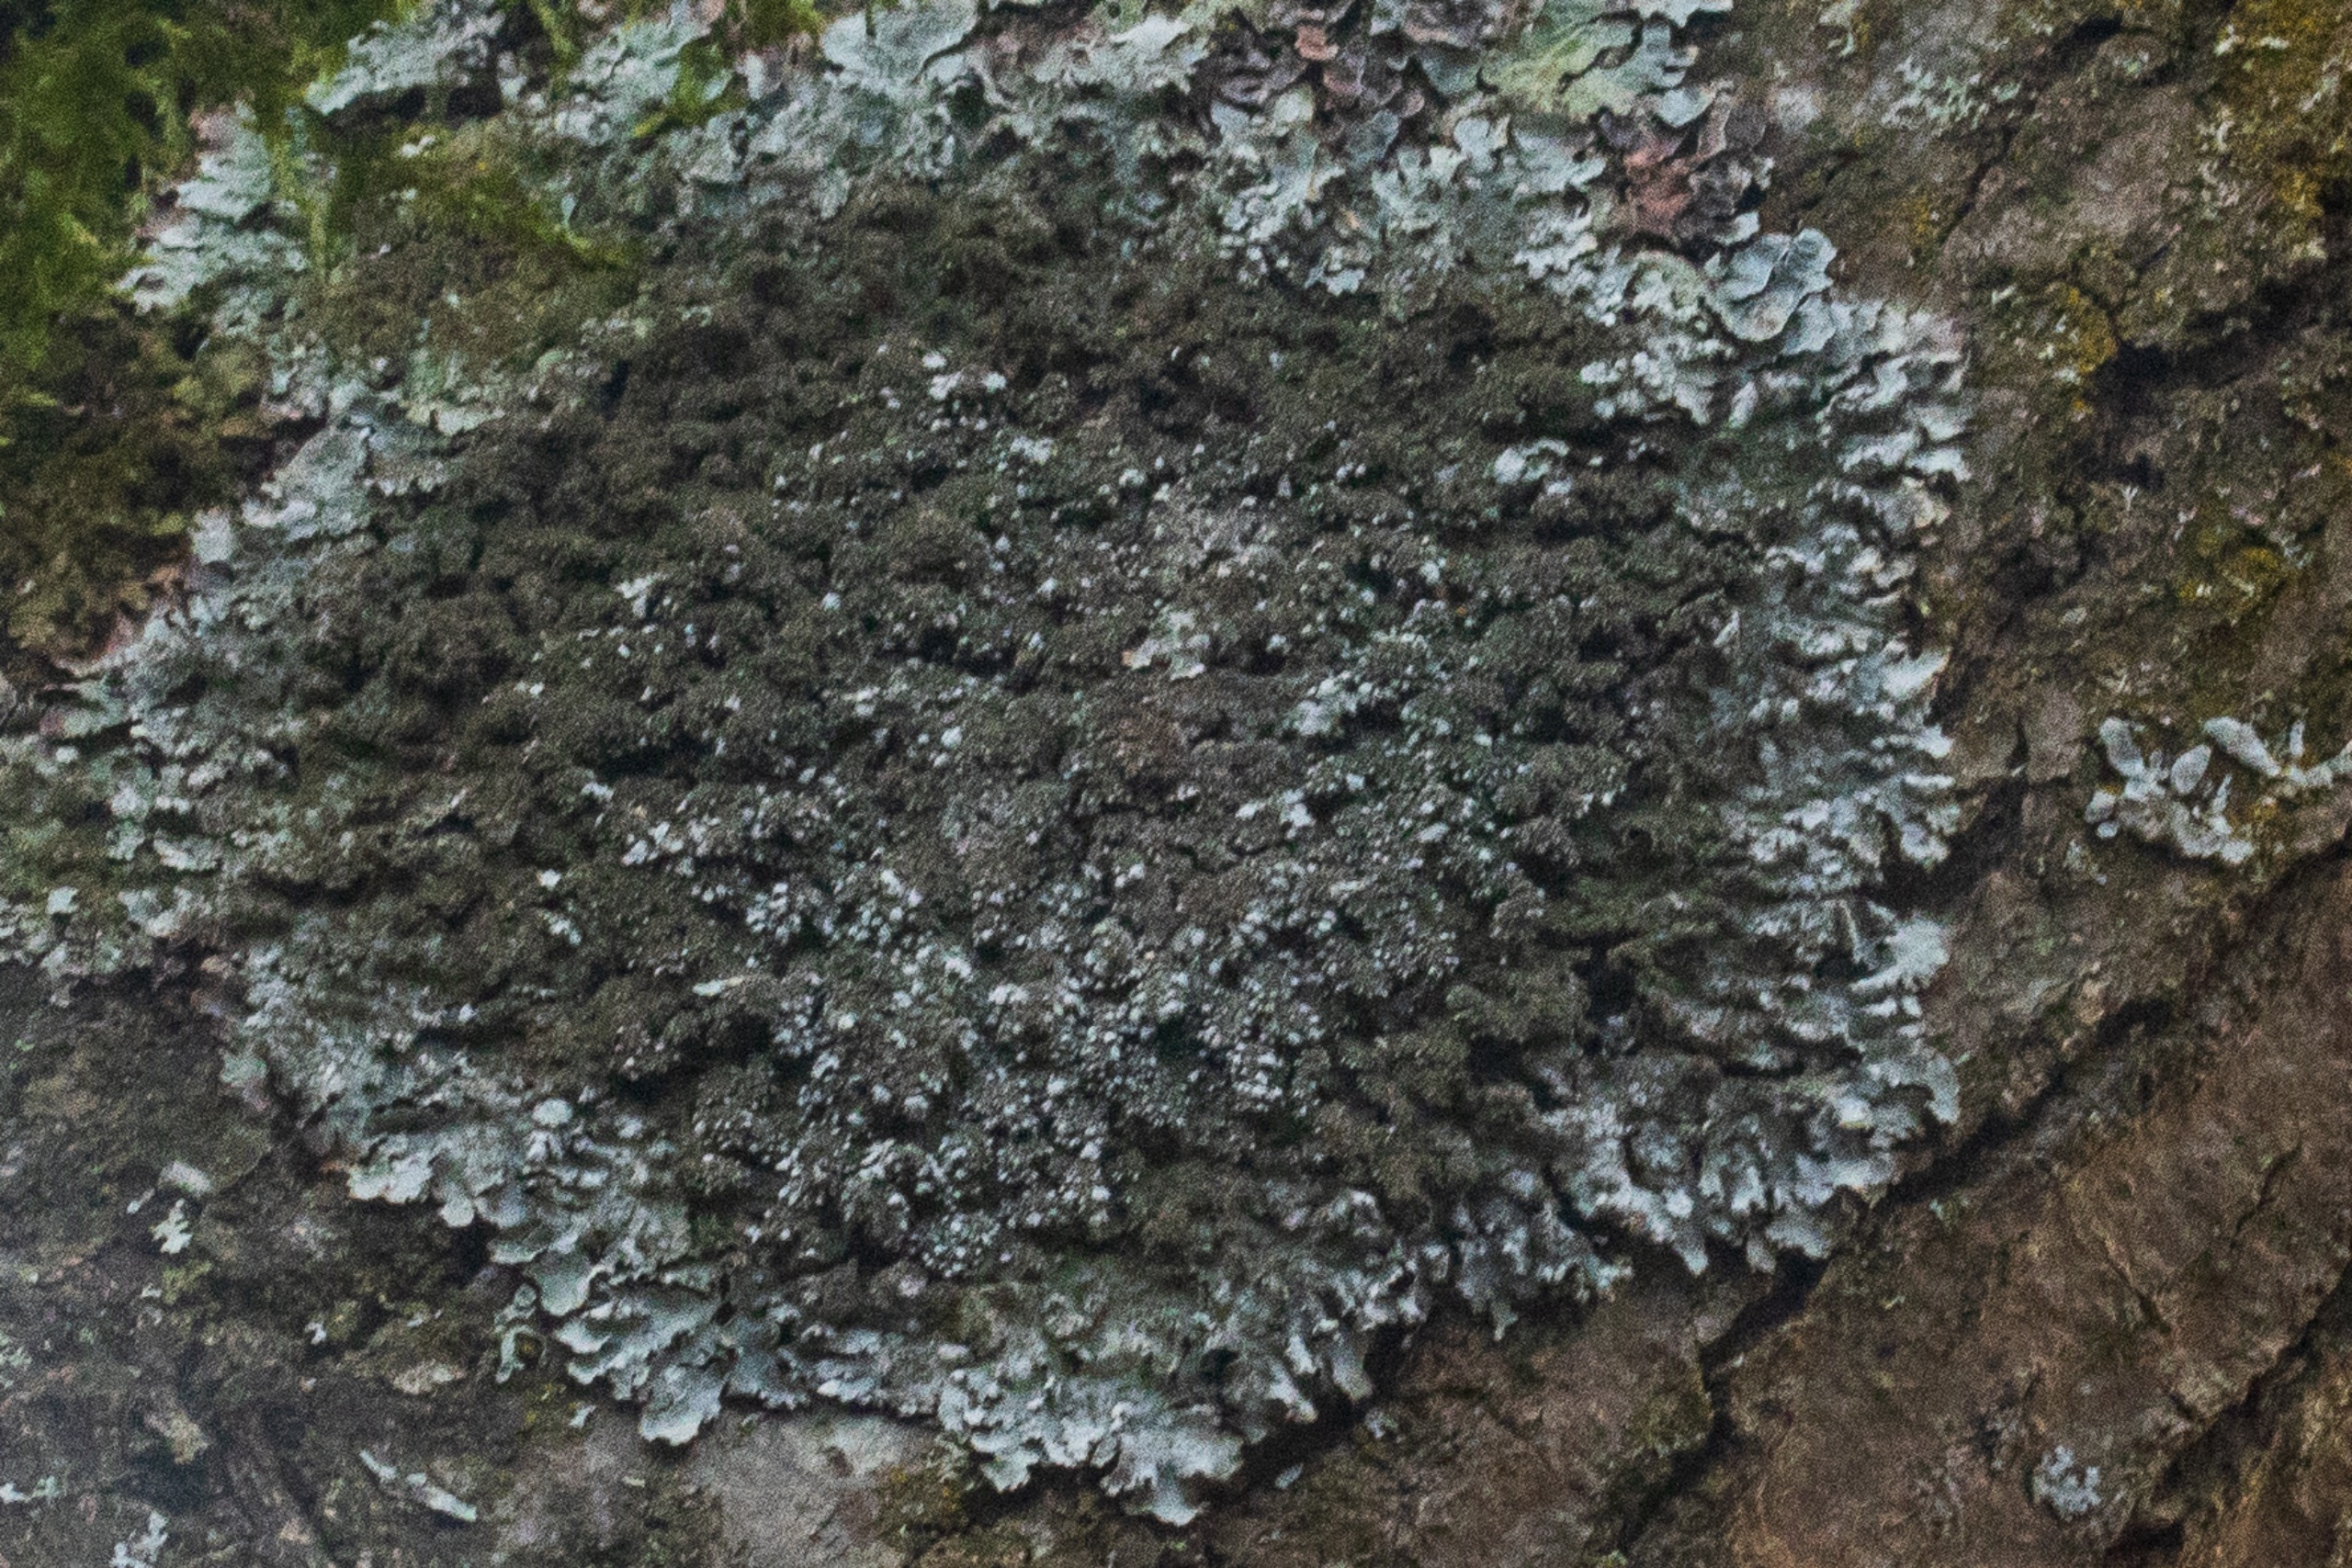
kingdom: Fungi
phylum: Ascomycota
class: Lecanoromycetes
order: Lecanorales
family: Parmeliaceae
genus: Parmelia
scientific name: Parmelia
